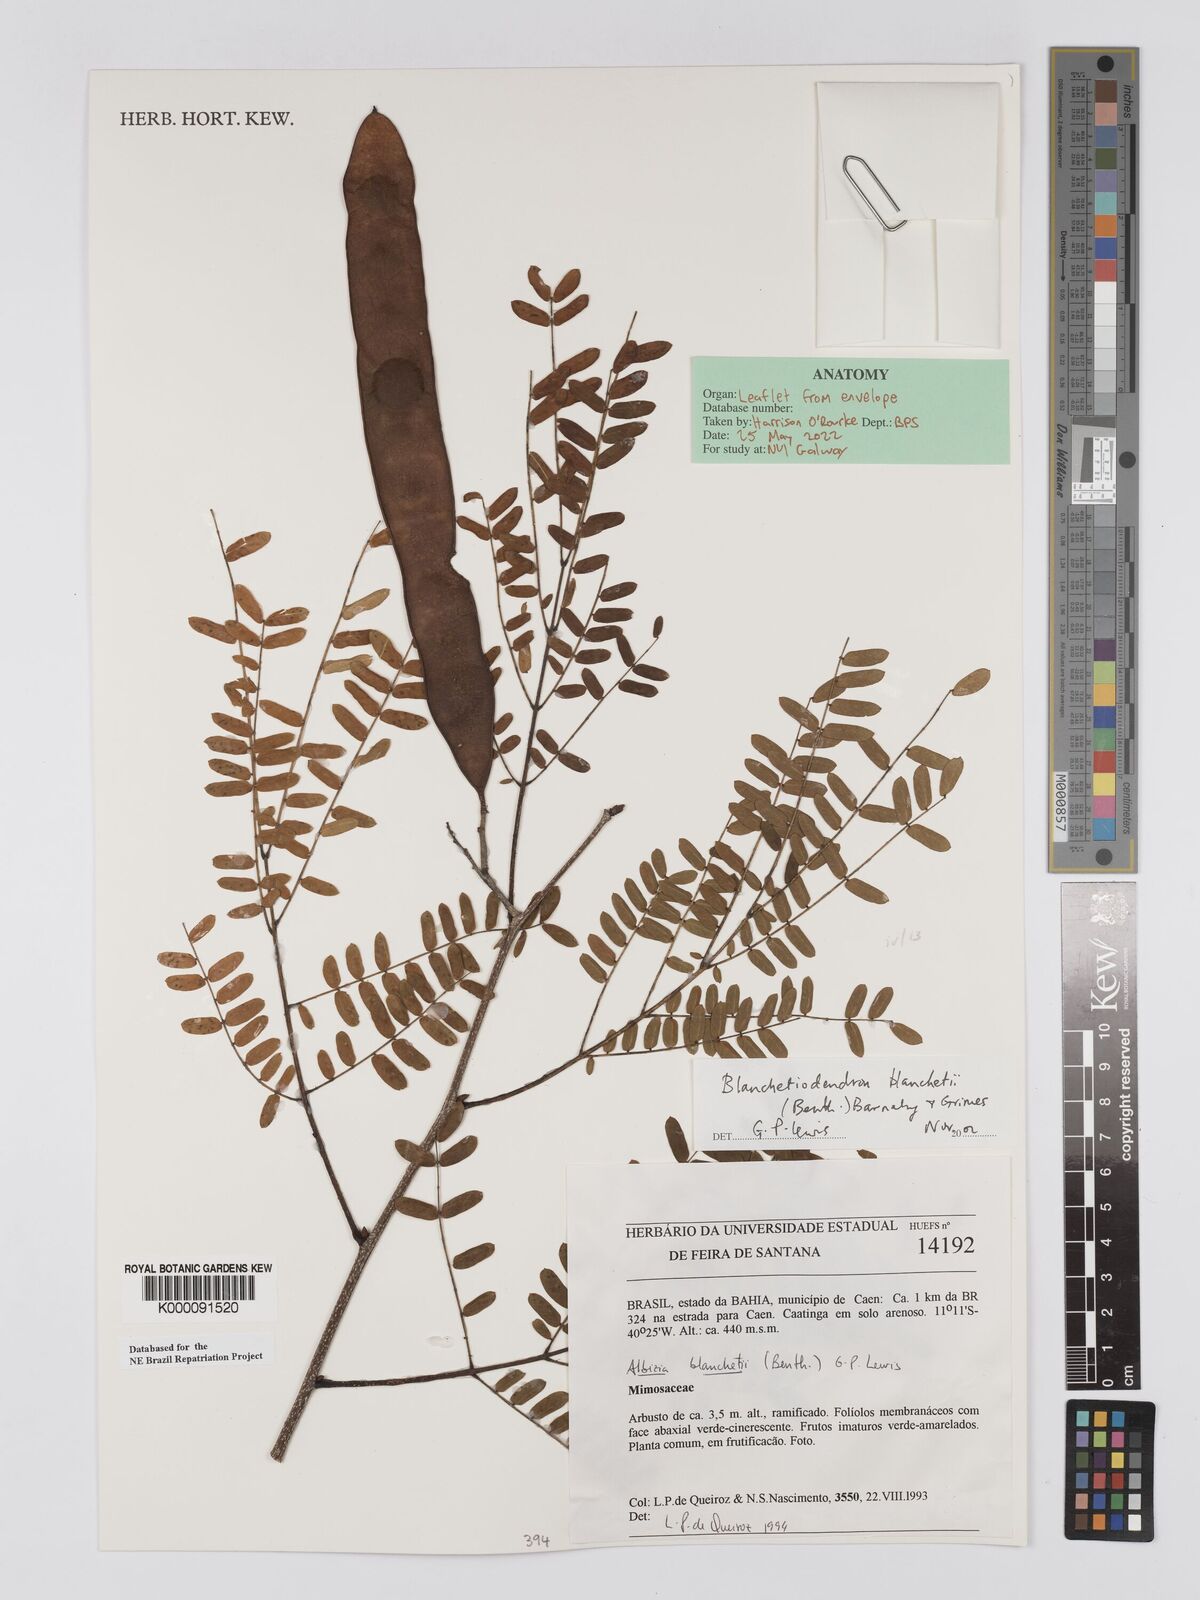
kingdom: Plantae
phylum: Tracheophyta
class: Magnoliopsida
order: Fabales
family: Fabaceae
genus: Blanchetiodendron
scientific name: Blanchetiodendron blanchetii
